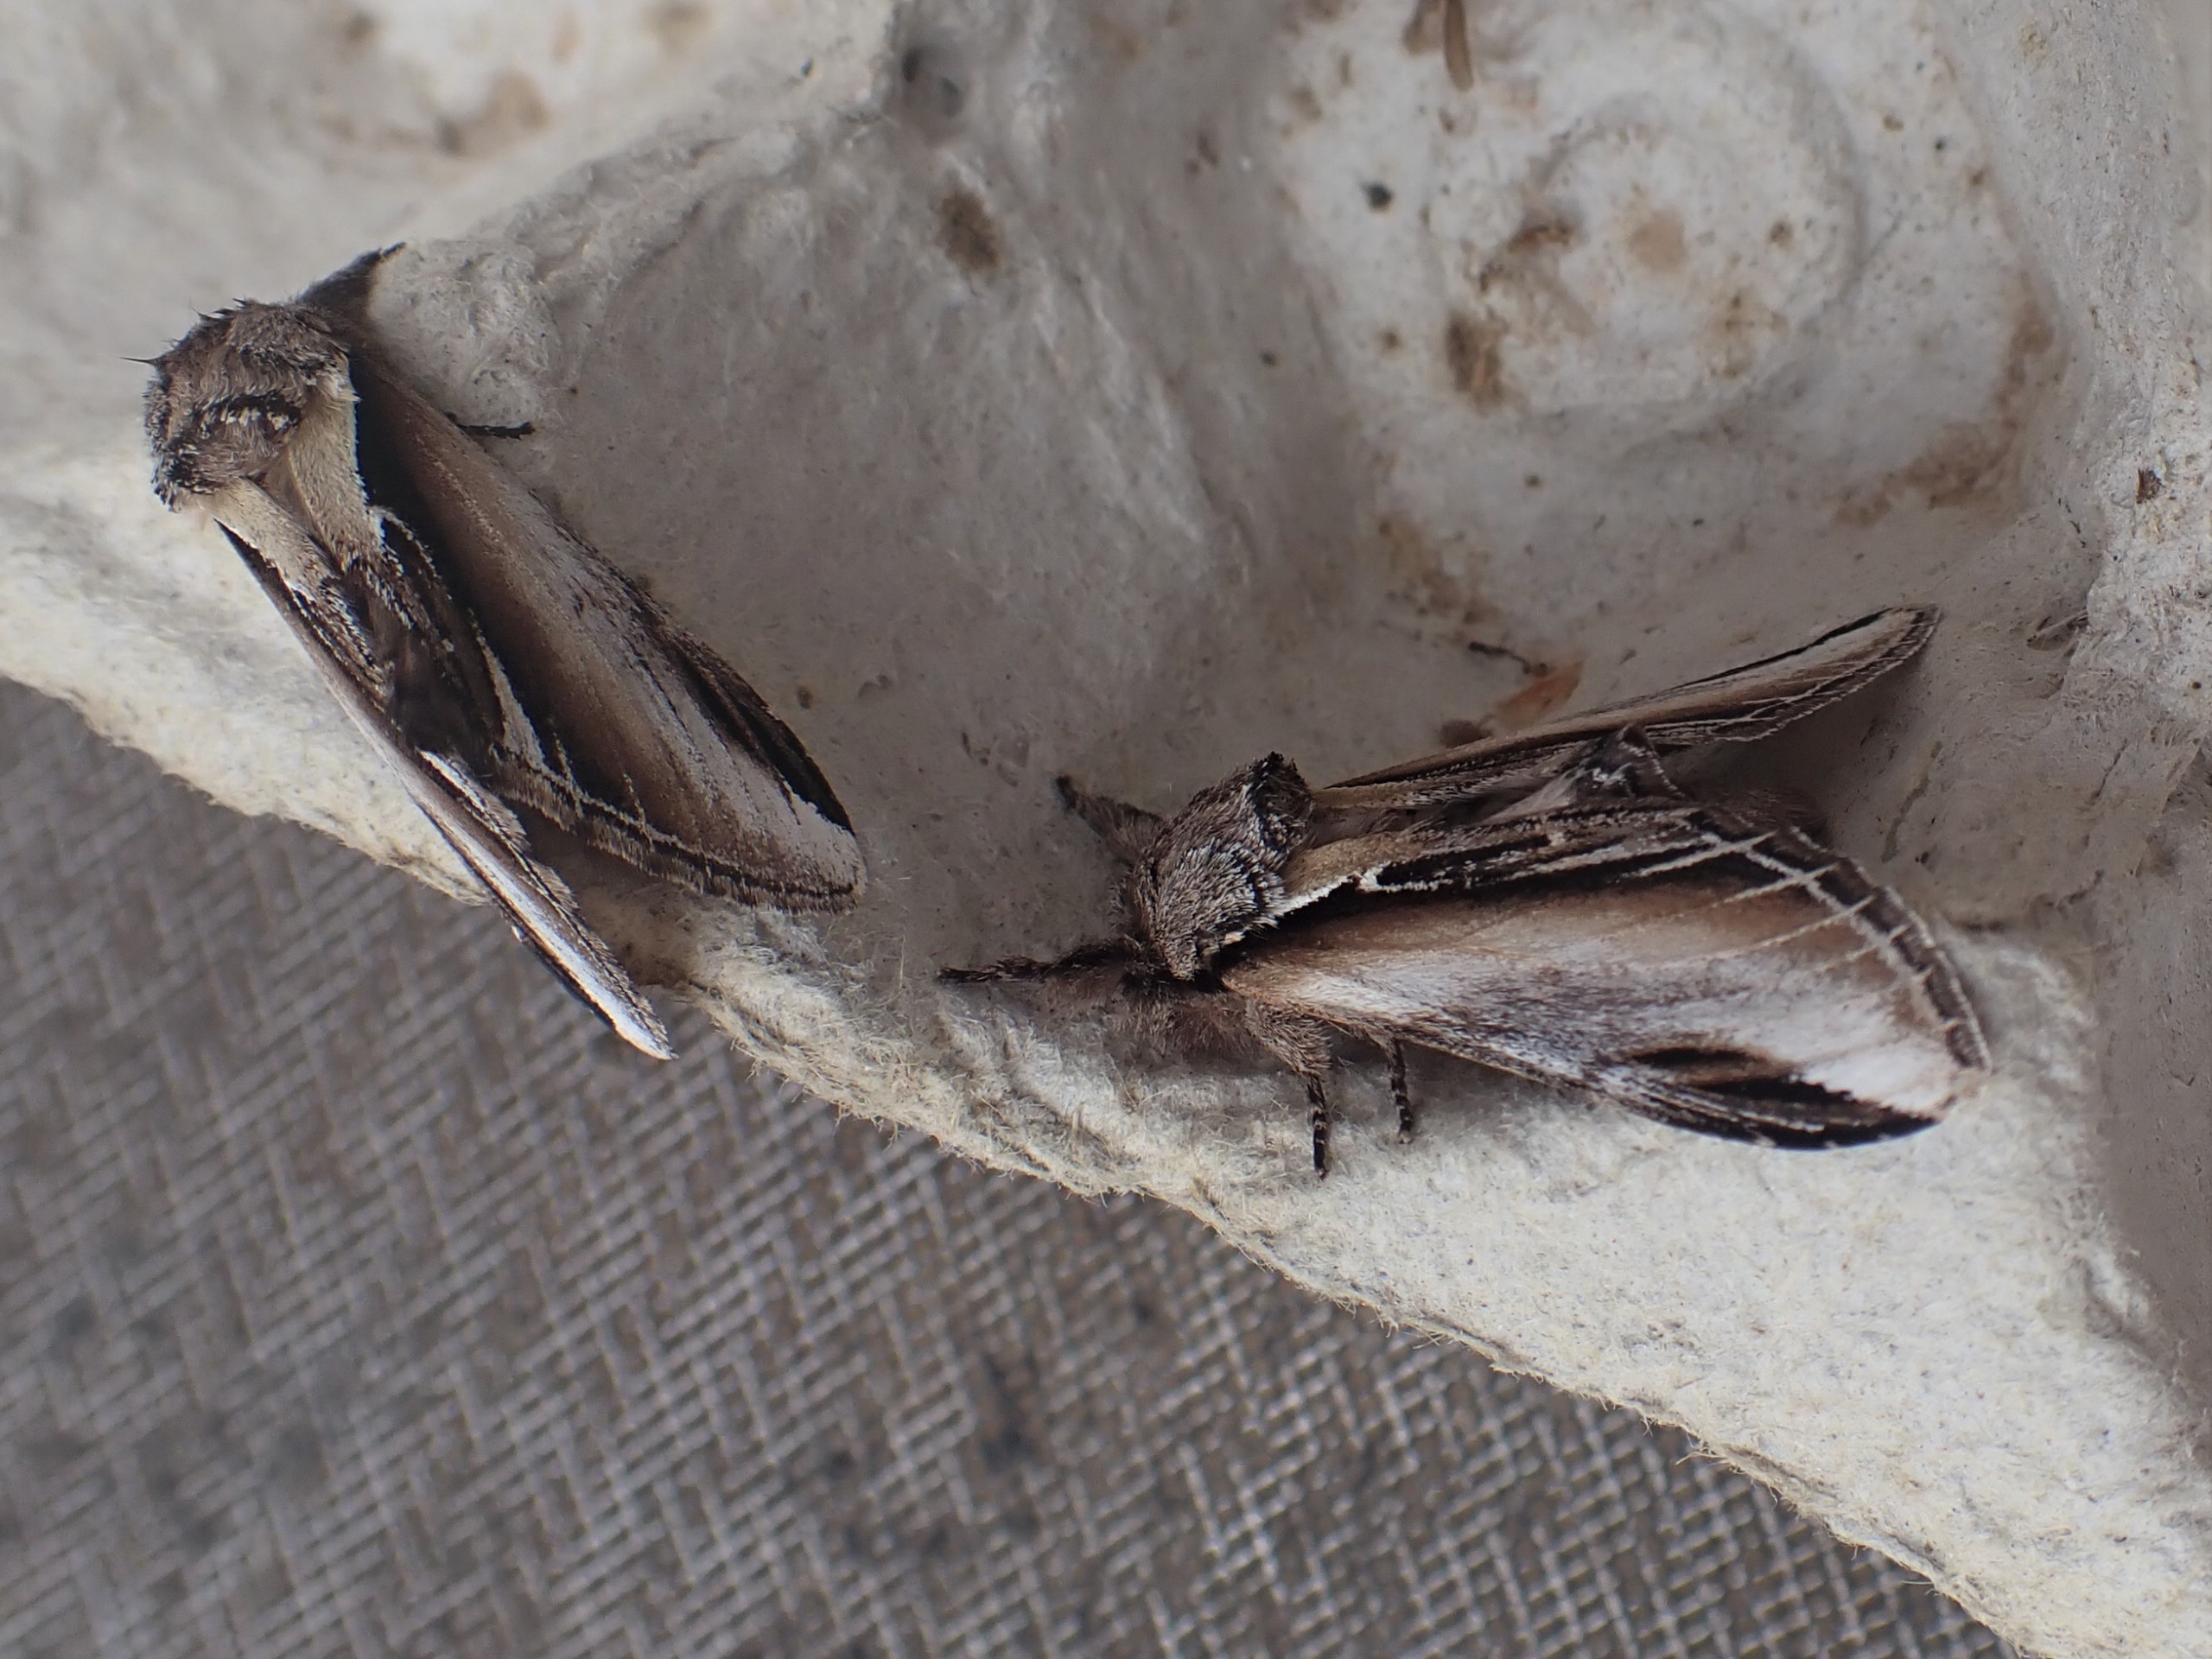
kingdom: Animalia
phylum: Arthropoda
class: Insecta
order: Lepidoptera
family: Notodontidae
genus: Pheosia
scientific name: Pheosia gnoma
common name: Birkeporcelænsspinder
